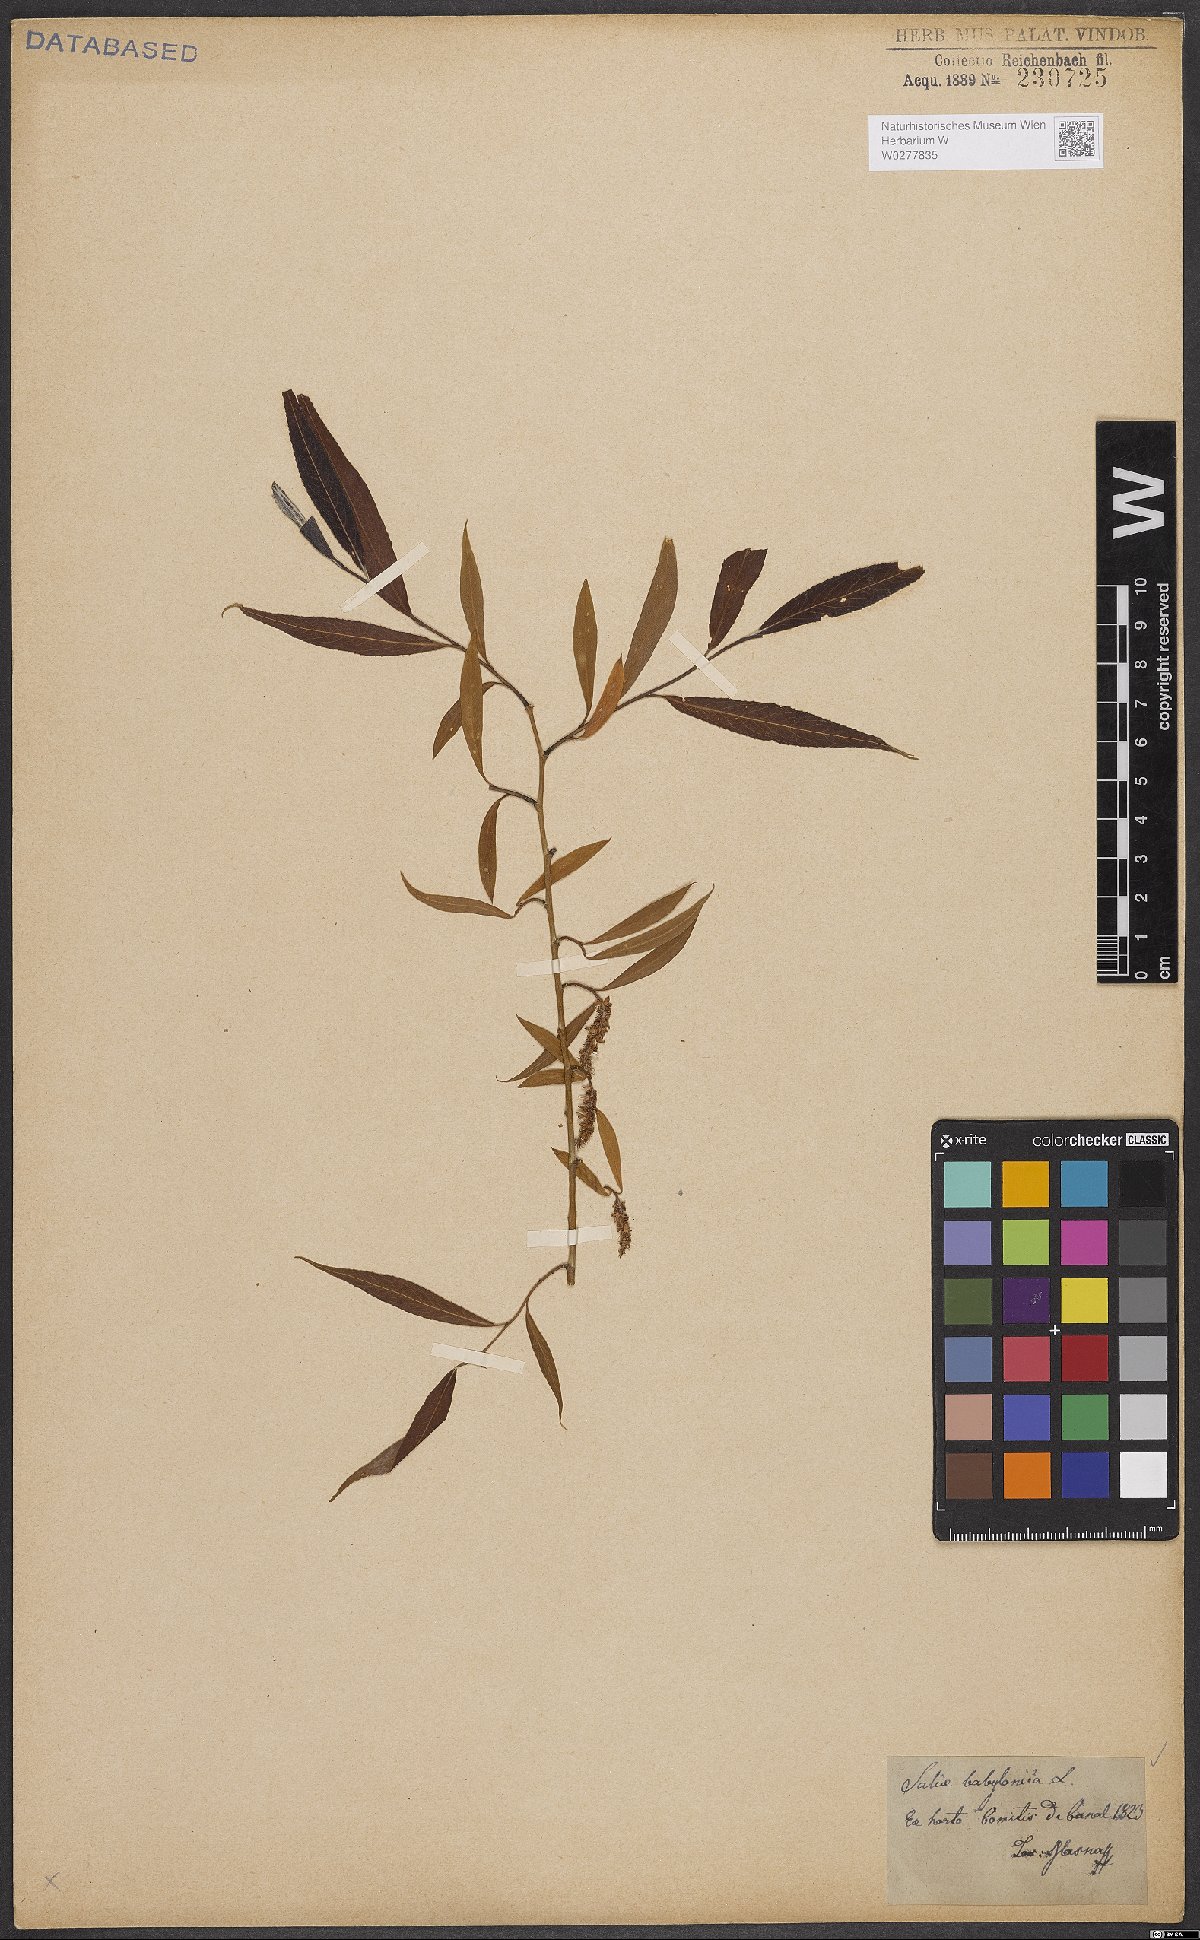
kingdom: Plantae
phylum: Tracheophyta
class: Magnoliopsida
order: Malpighiales
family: Salicaceae
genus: Salix
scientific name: Salix babylonica
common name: Weeping willow
